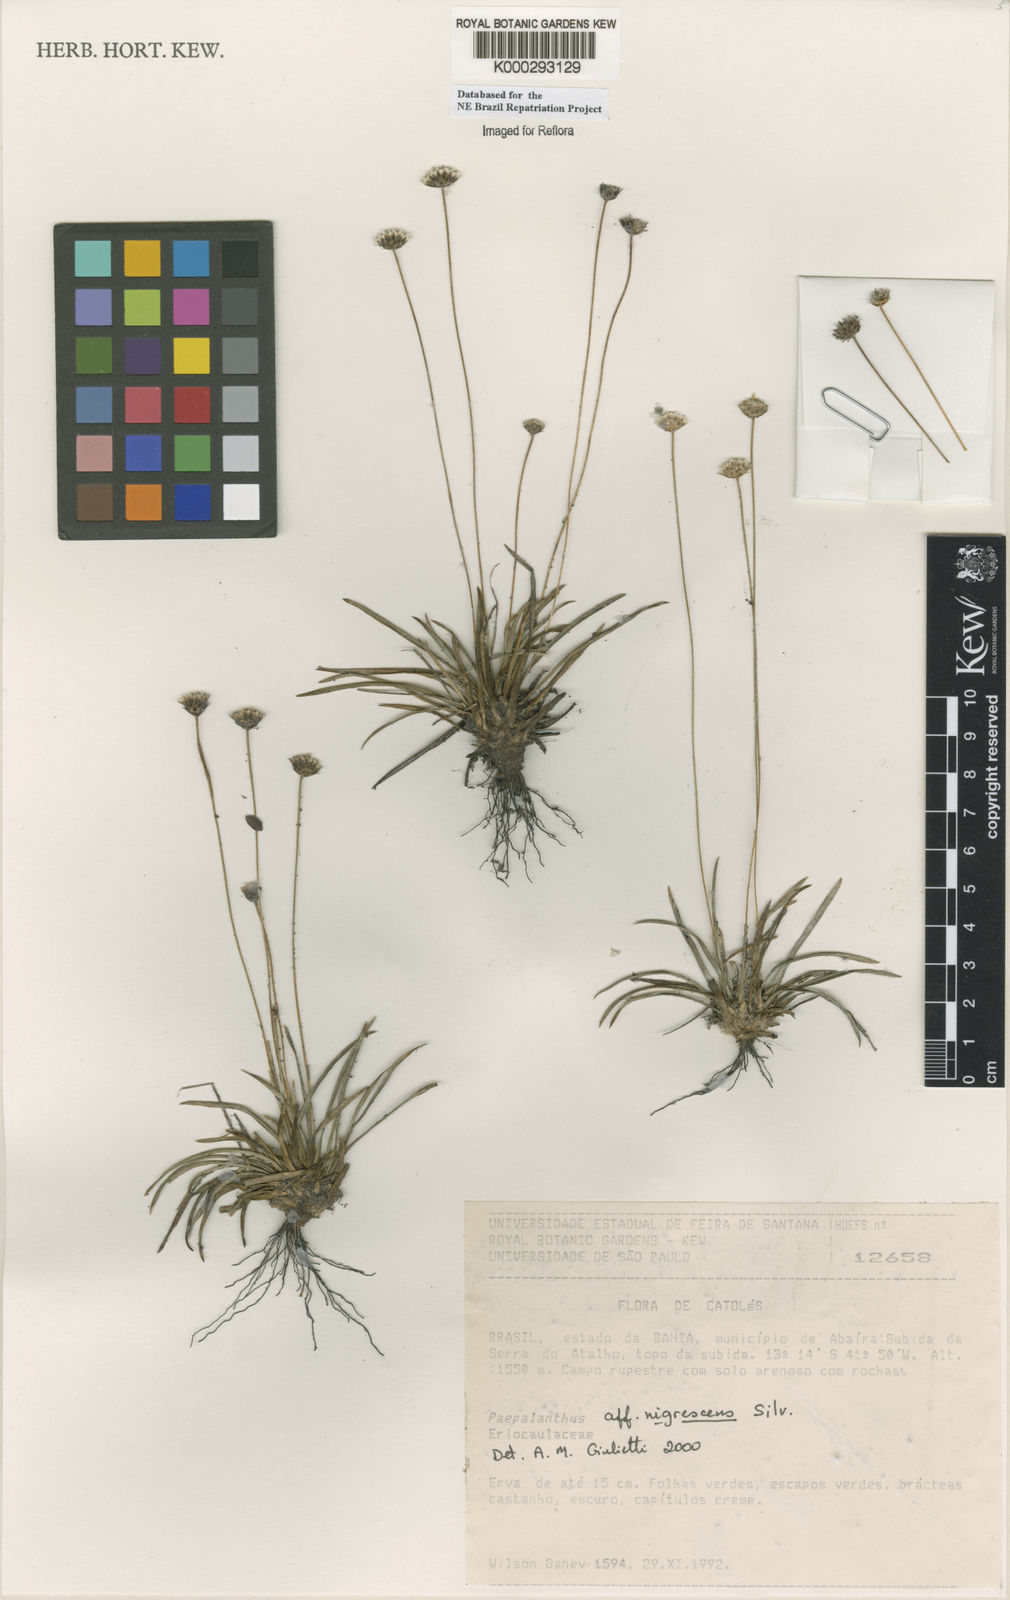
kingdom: Plantae
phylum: Tracheophyta
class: Liliopsida
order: Poales
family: Eriocaulaceae
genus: Paepalanthus
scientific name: Paepalanthus nigrescens
